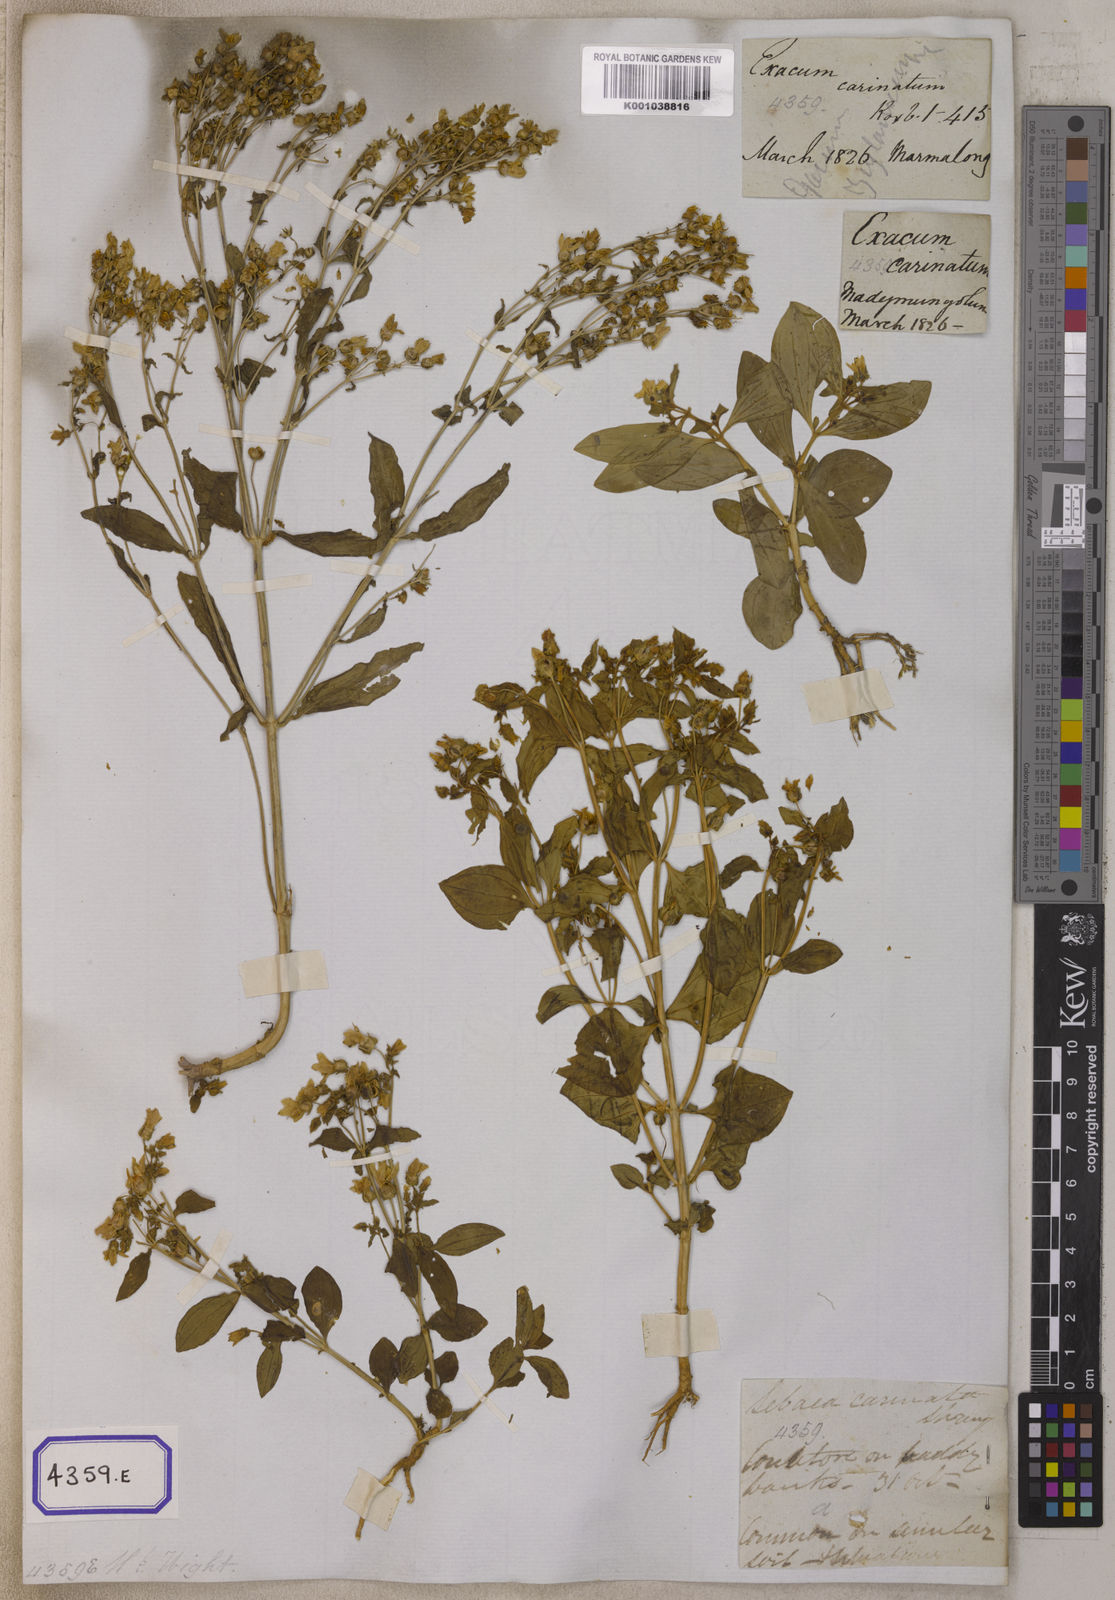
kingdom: Plantae
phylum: Tracheophyta
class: Magnoliopsida
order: Gentianales
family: Gentianaceae
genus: Exacum
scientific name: Exacum pedunculatum
